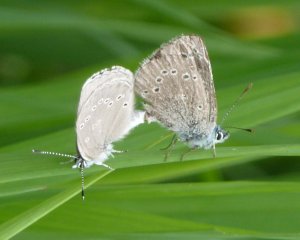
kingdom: Animalia
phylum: Arthropoda
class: Insecta
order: Lepidoptera
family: Lycaenidae
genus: Glaucopsyche
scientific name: Glaucopsyche lygdamus
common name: Silvery Blue
